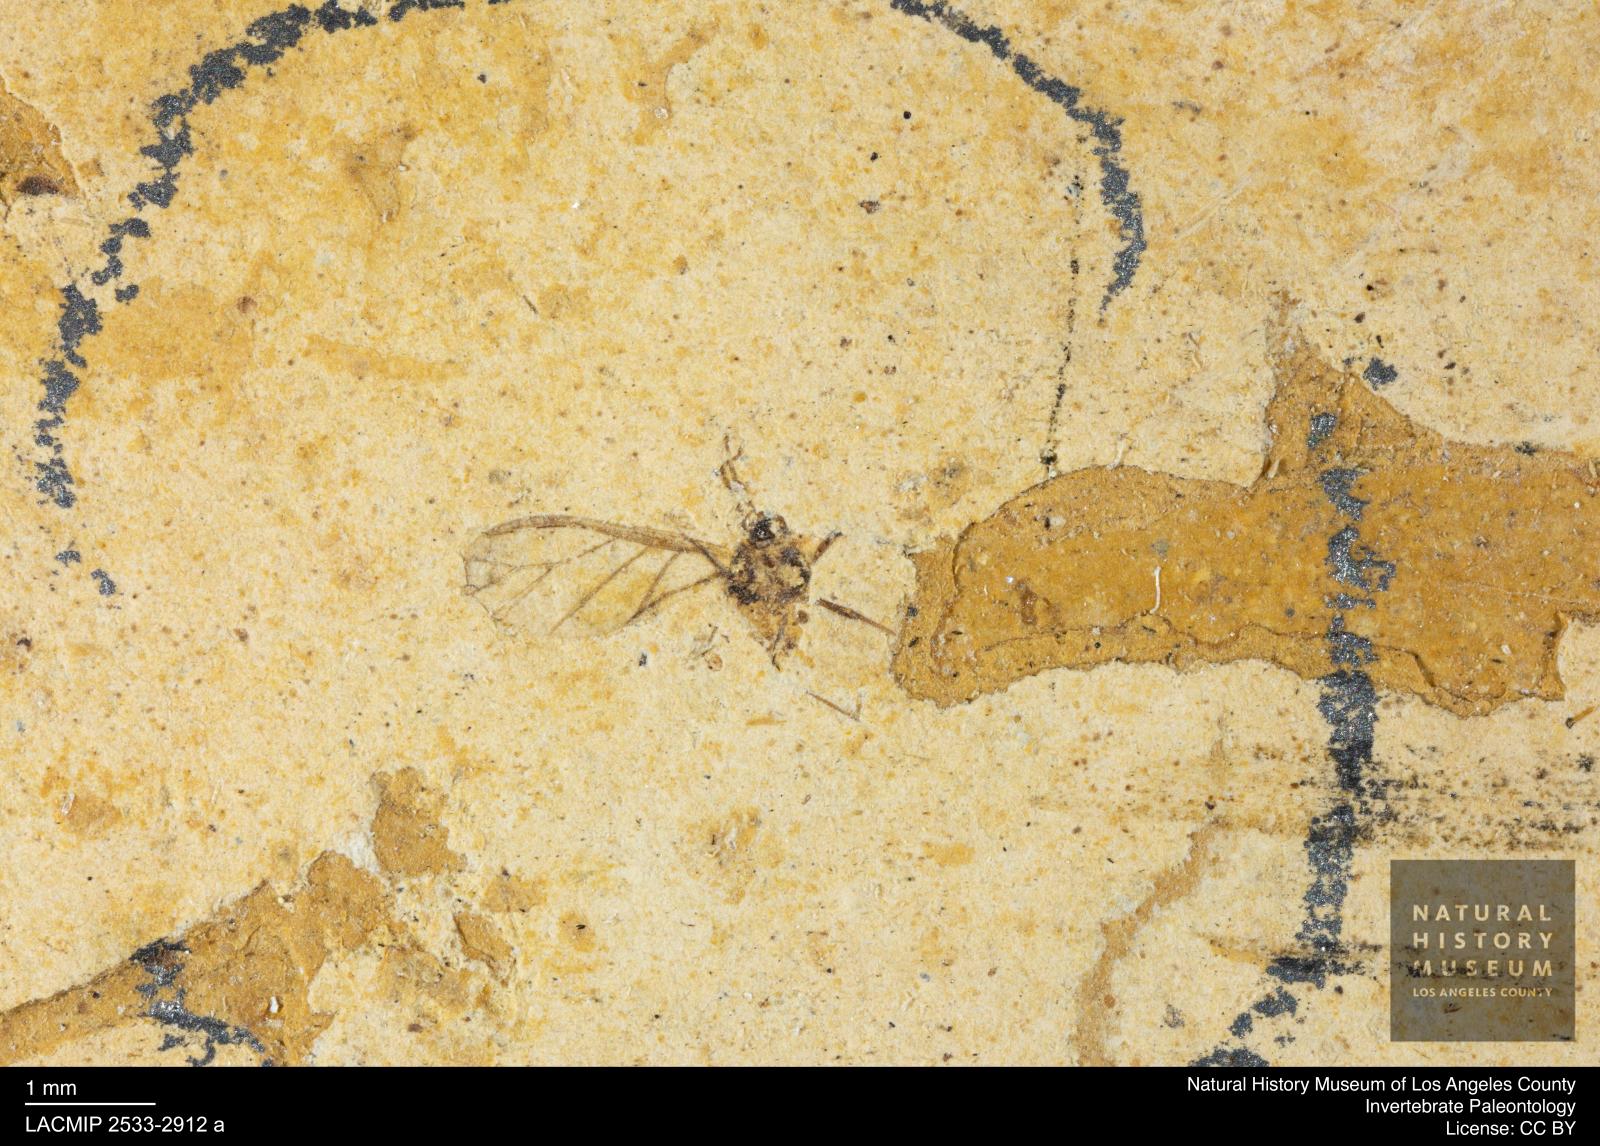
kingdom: Animalia
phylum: Arthropoda
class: Insecta
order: Hemiptera
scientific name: Hemiptera
